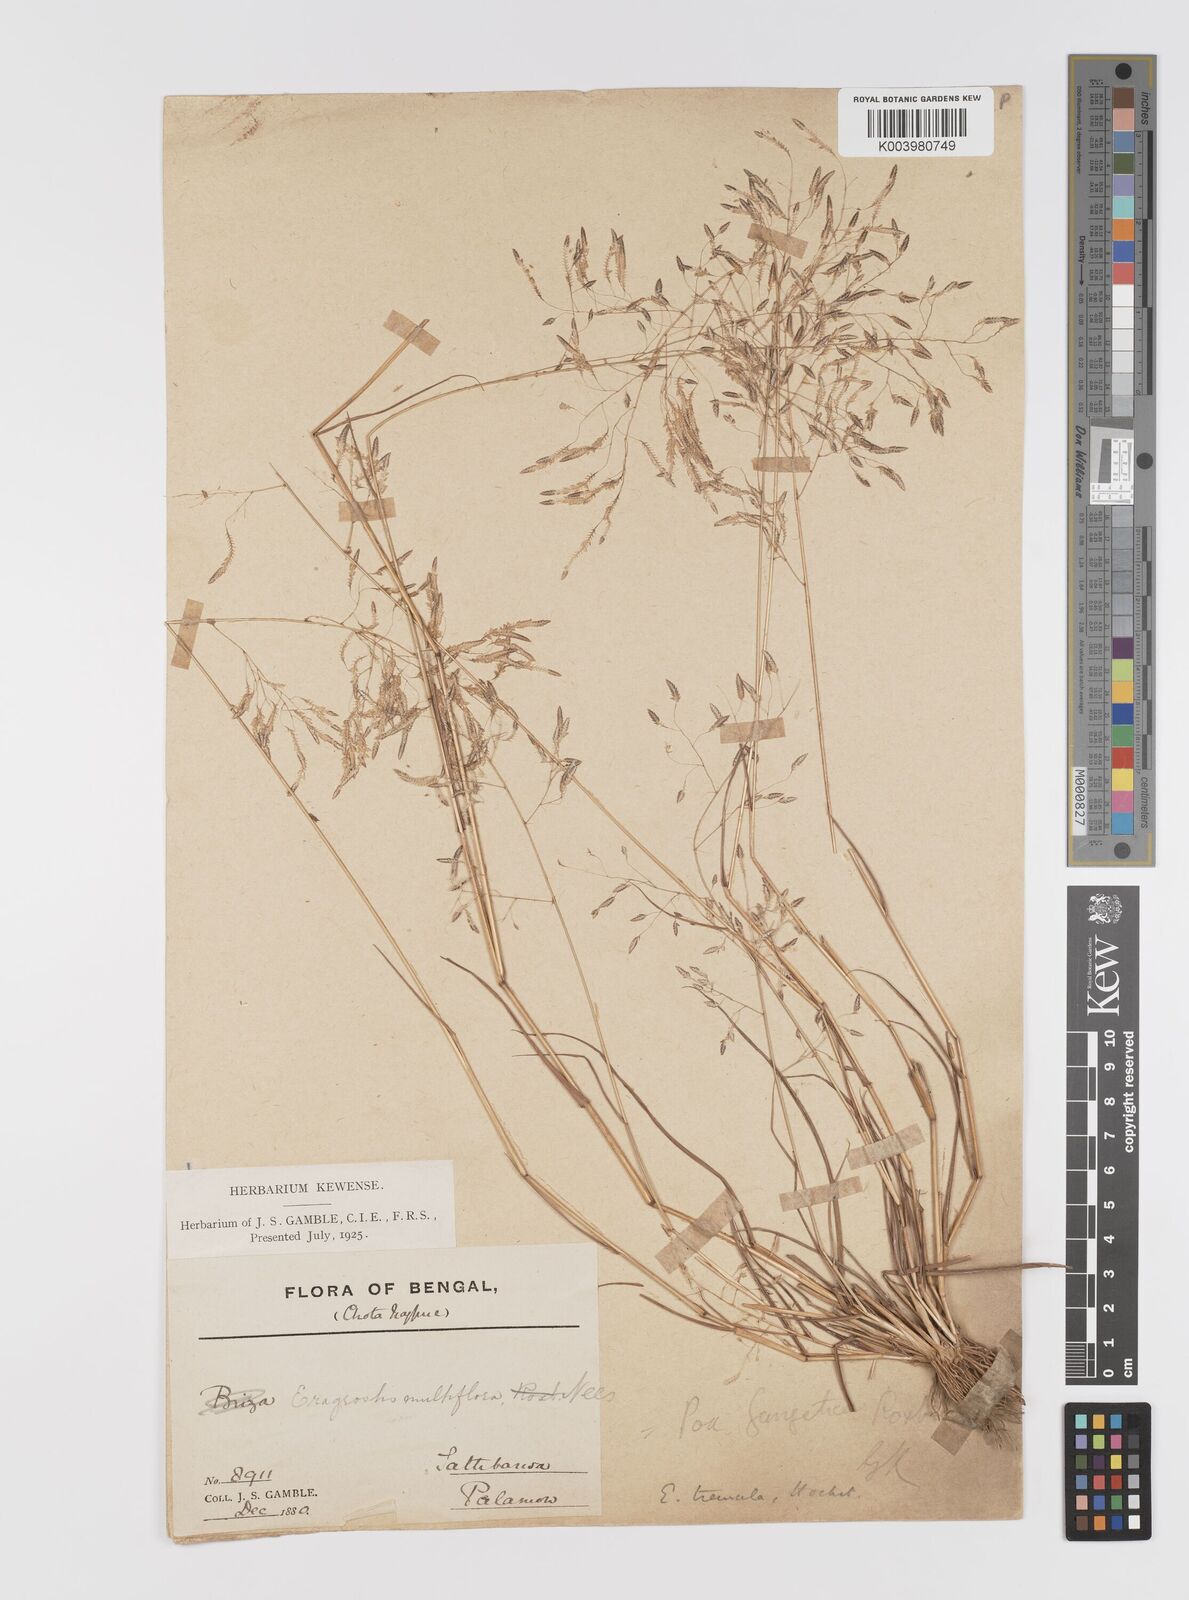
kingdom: Plantae
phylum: Tracheophyta
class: Liliopsida
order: Poales
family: Poaceae
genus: Eragrostis
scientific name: Eragrostis tremula
